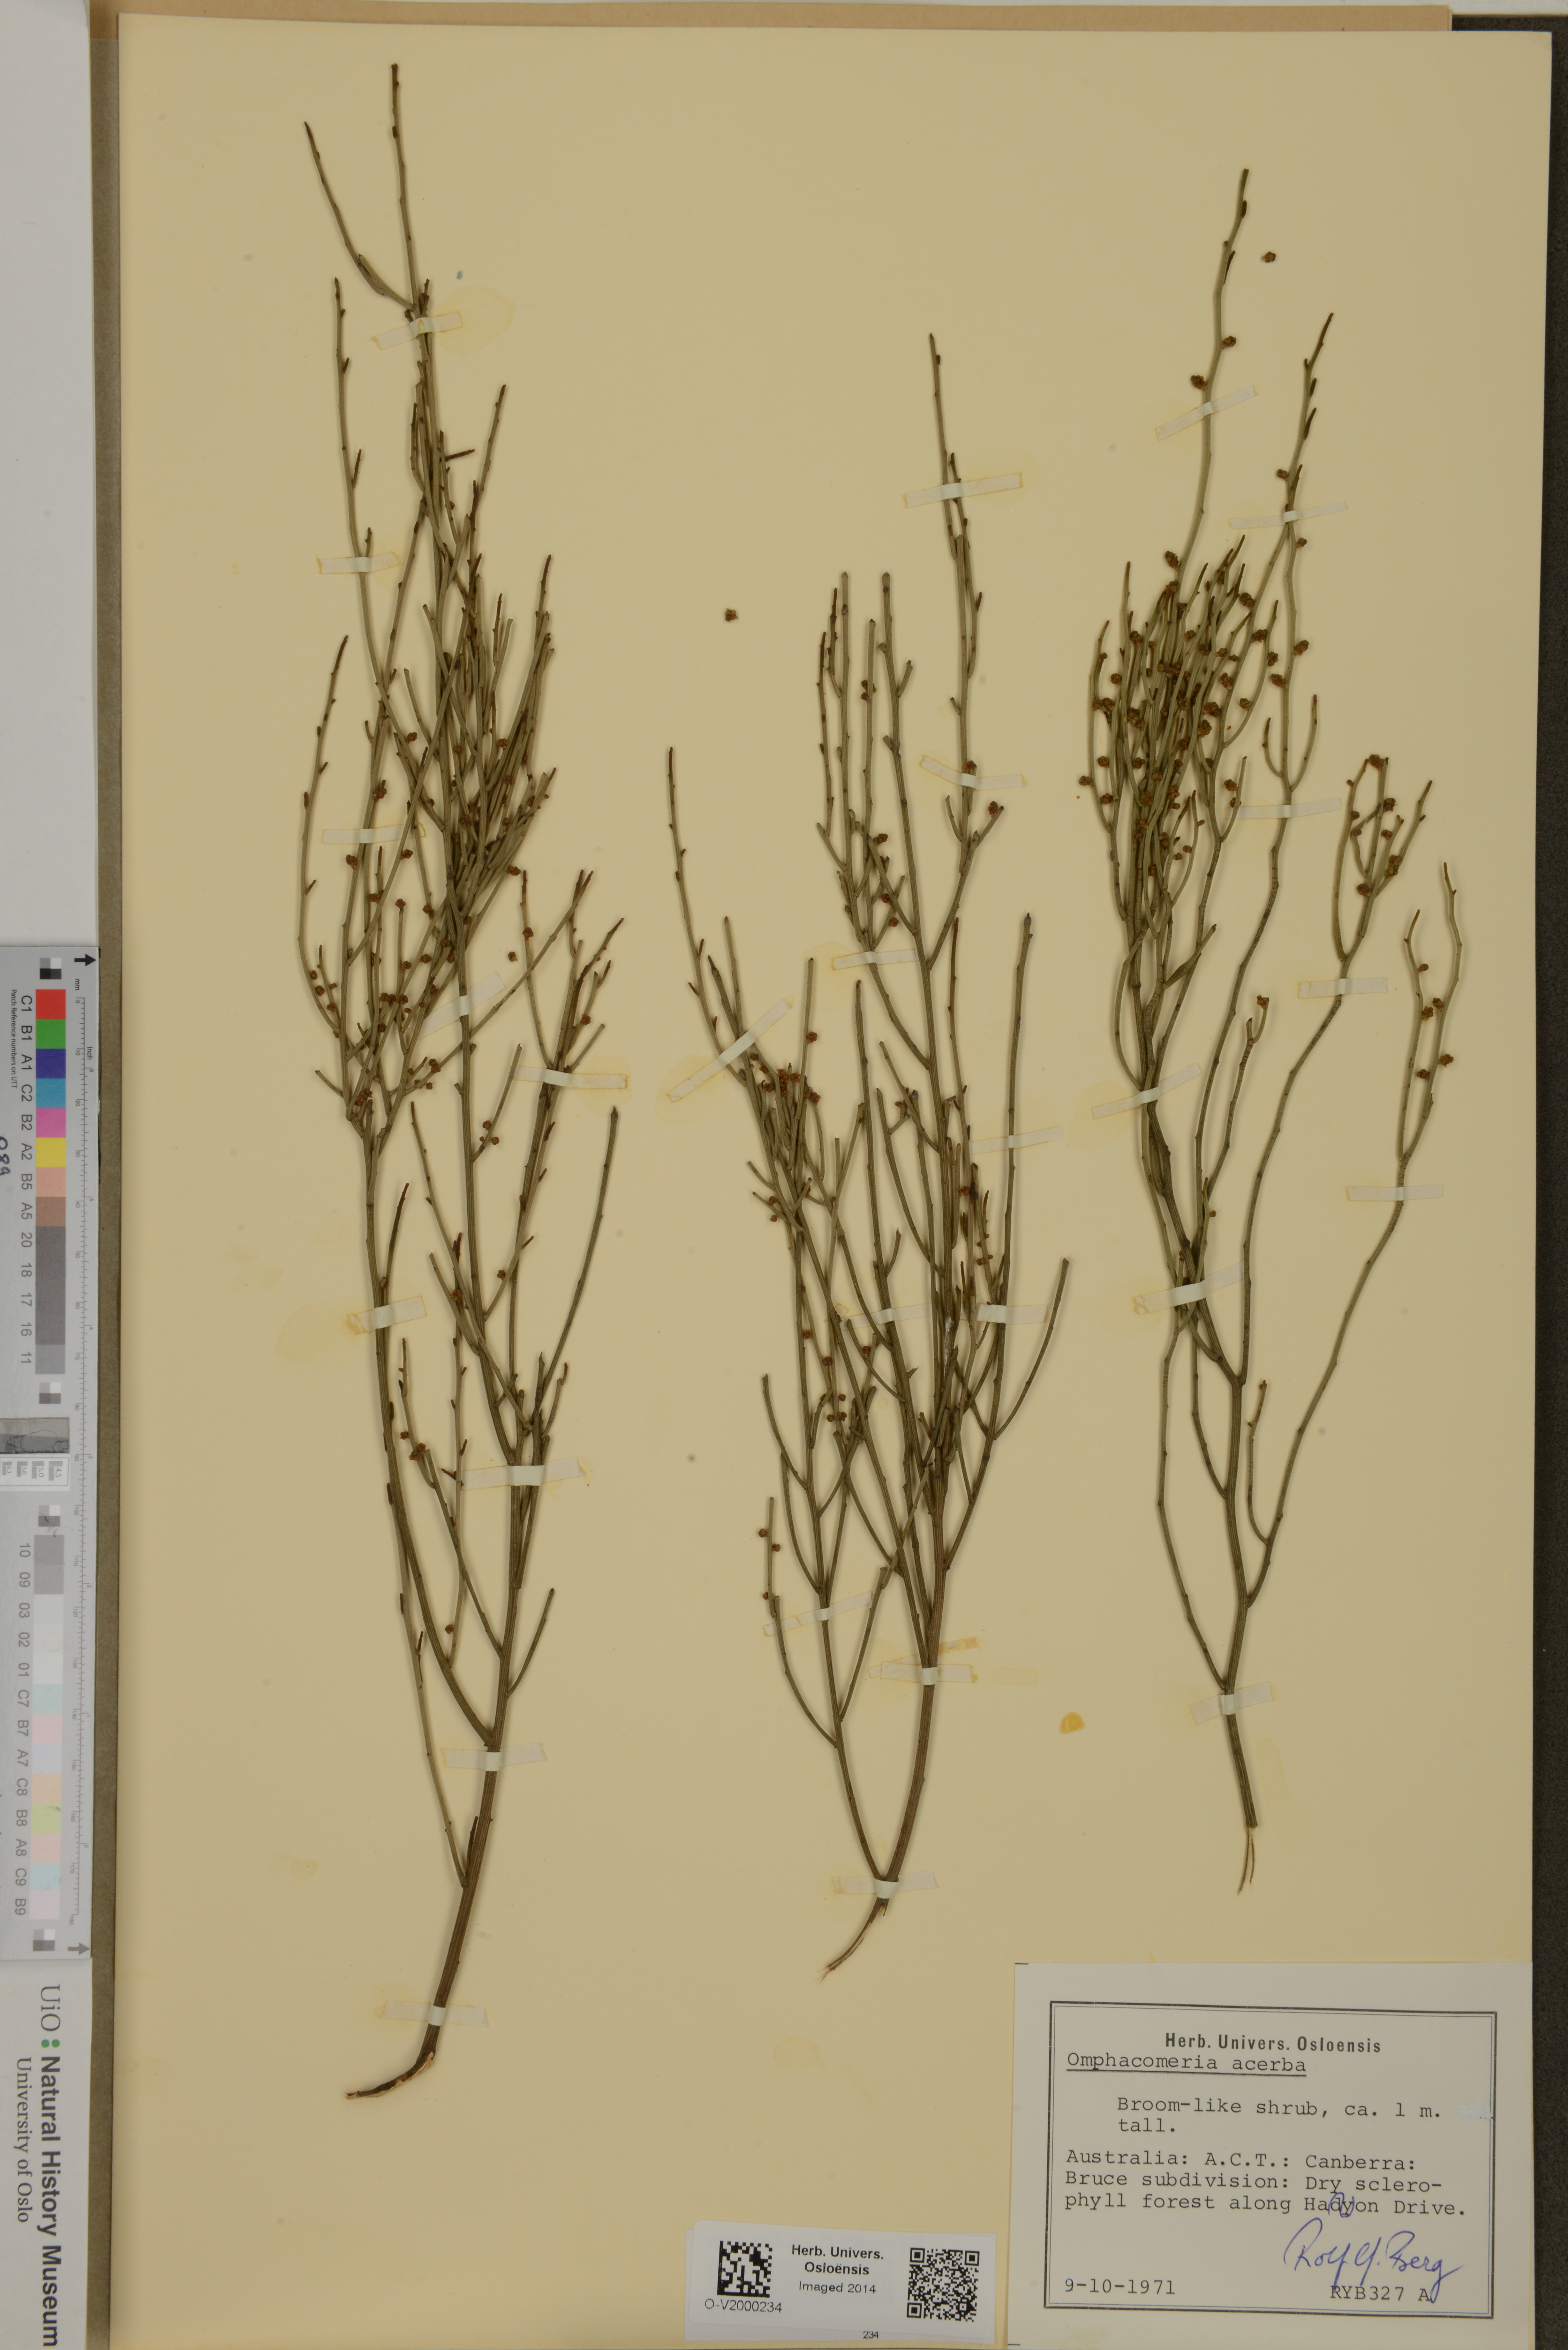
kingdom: Plantae
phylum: Tracheophyta
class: Magnoliopsida
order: Santalales
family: Santalaceae
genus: Omphacomeria
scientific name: Omphacomeria acerba
